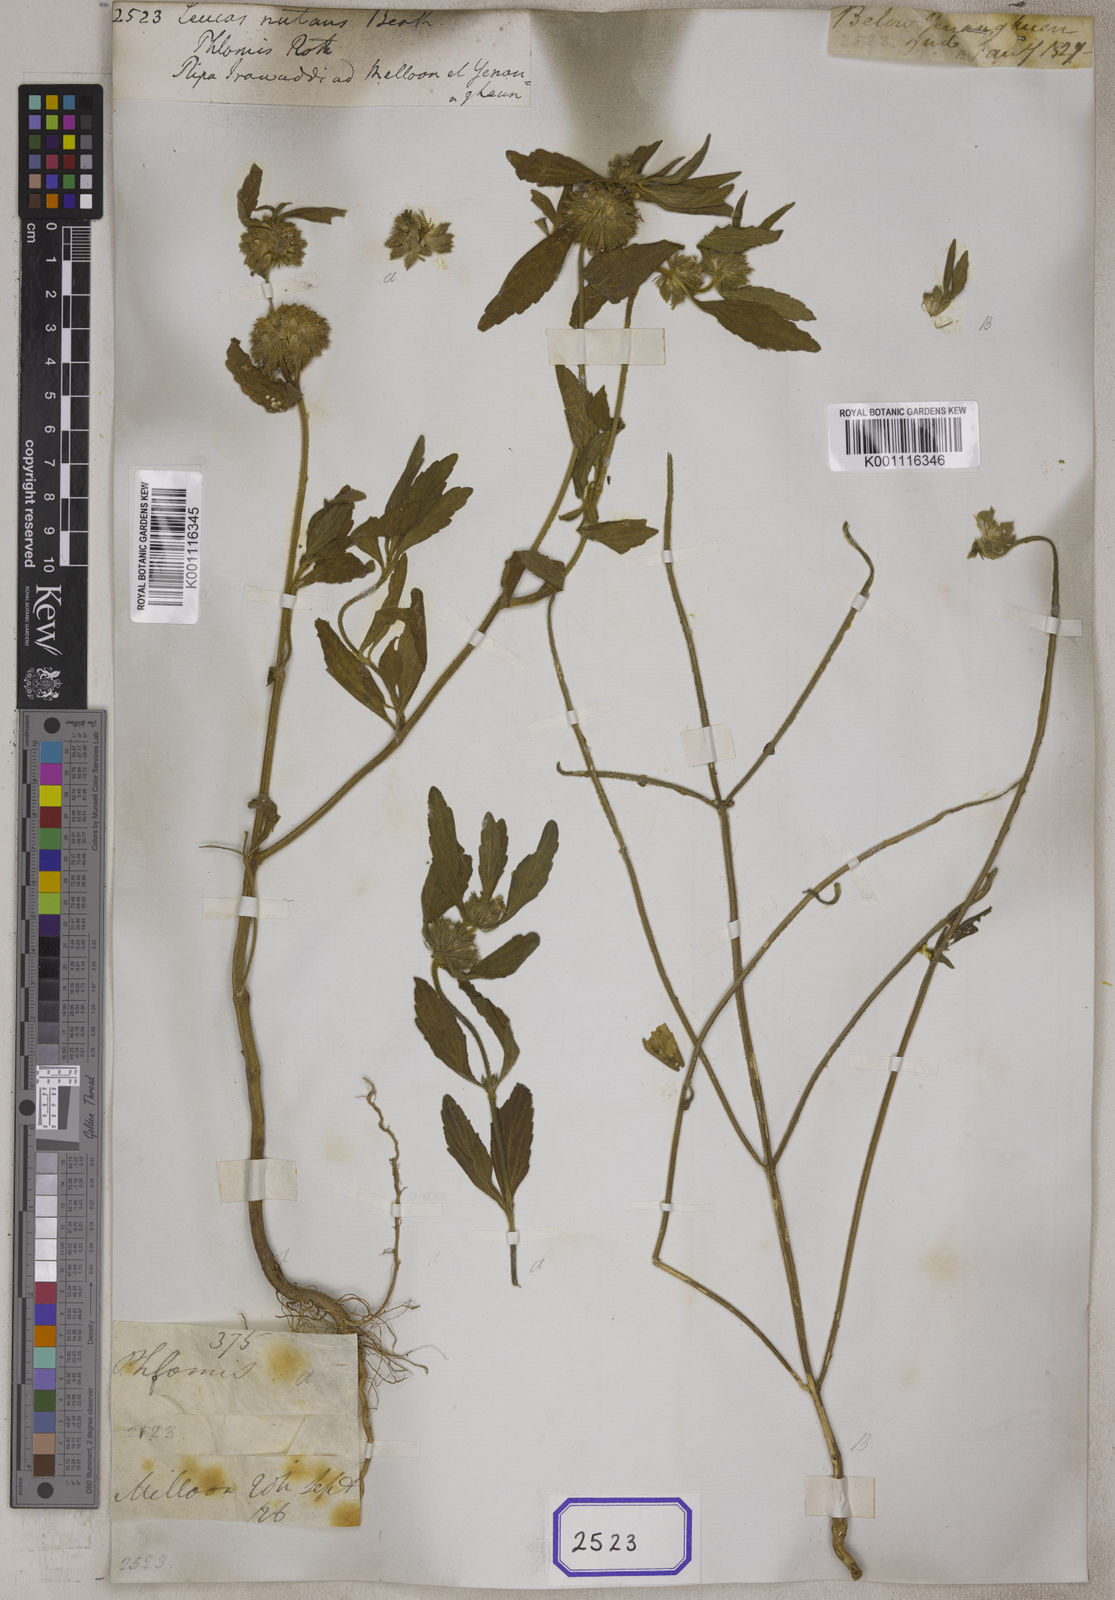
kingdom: Plantae
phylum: Tracheophyta
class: Magnoliopsida
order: Lamiales
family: Lamiaceae
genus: Leucas
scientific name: Leucas
